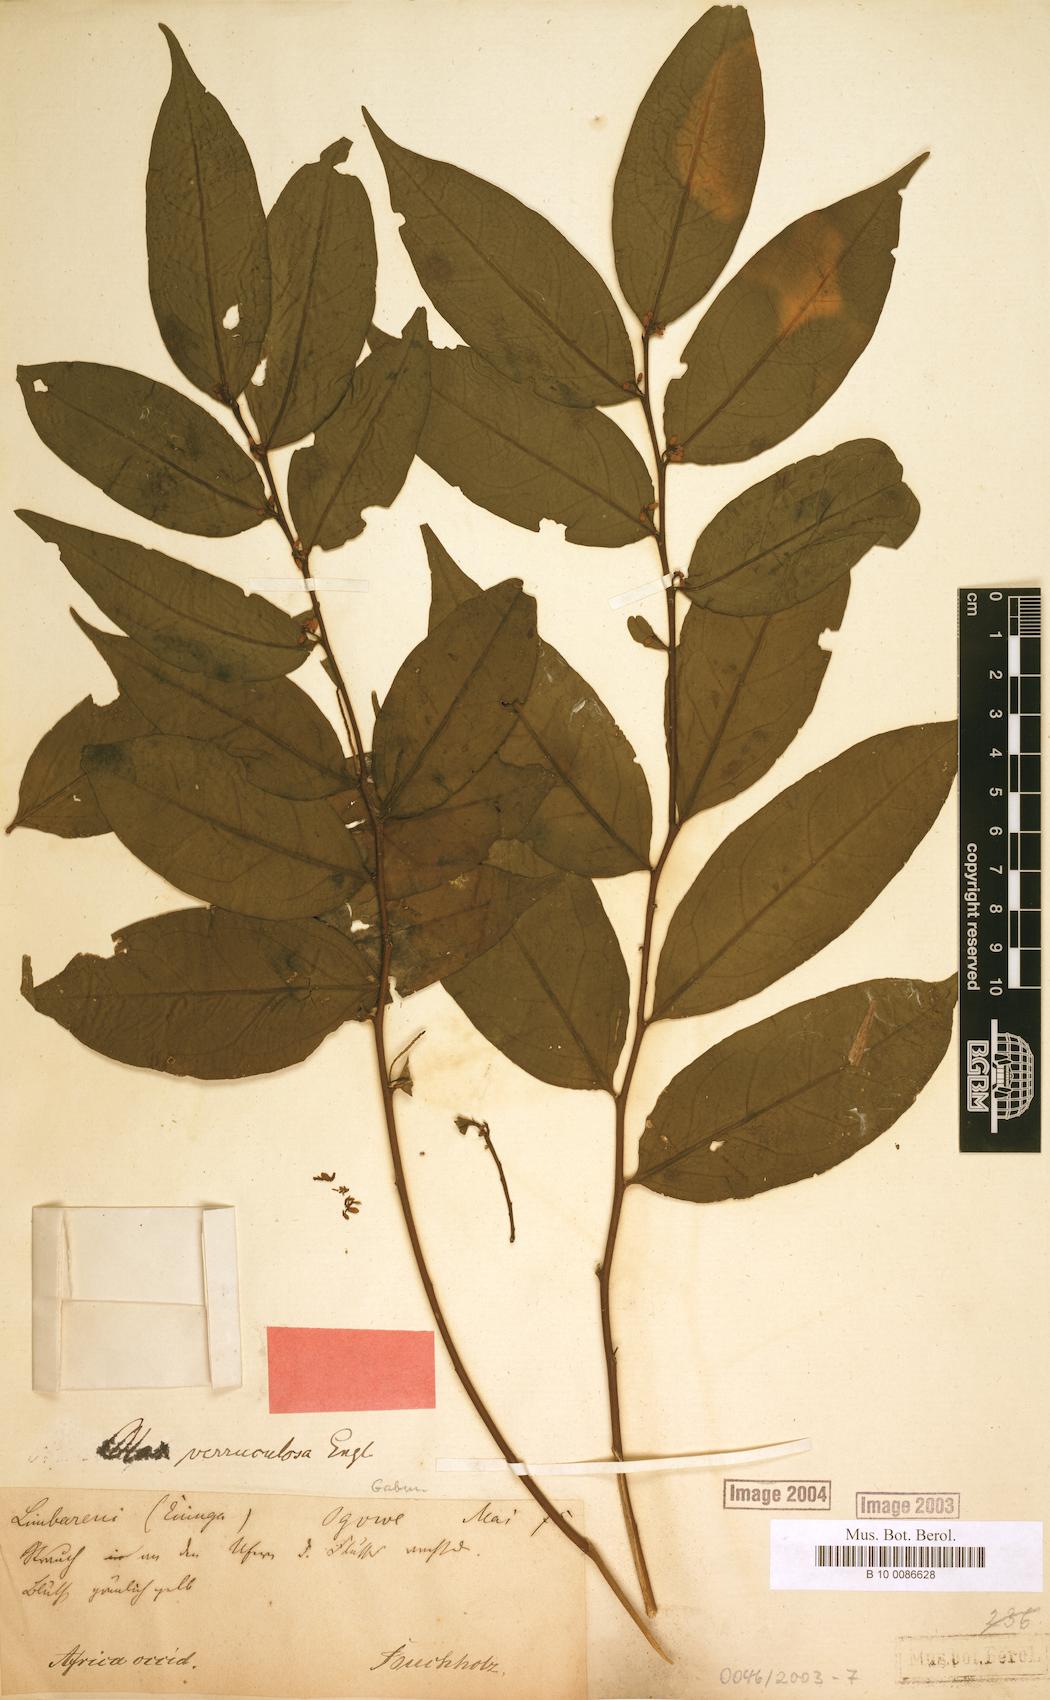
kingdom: Plantae
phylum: Tracheophyta
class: Magnoliopsida
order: Santalales
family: Olacaceae
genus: Olax
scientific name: Olax gambecola
